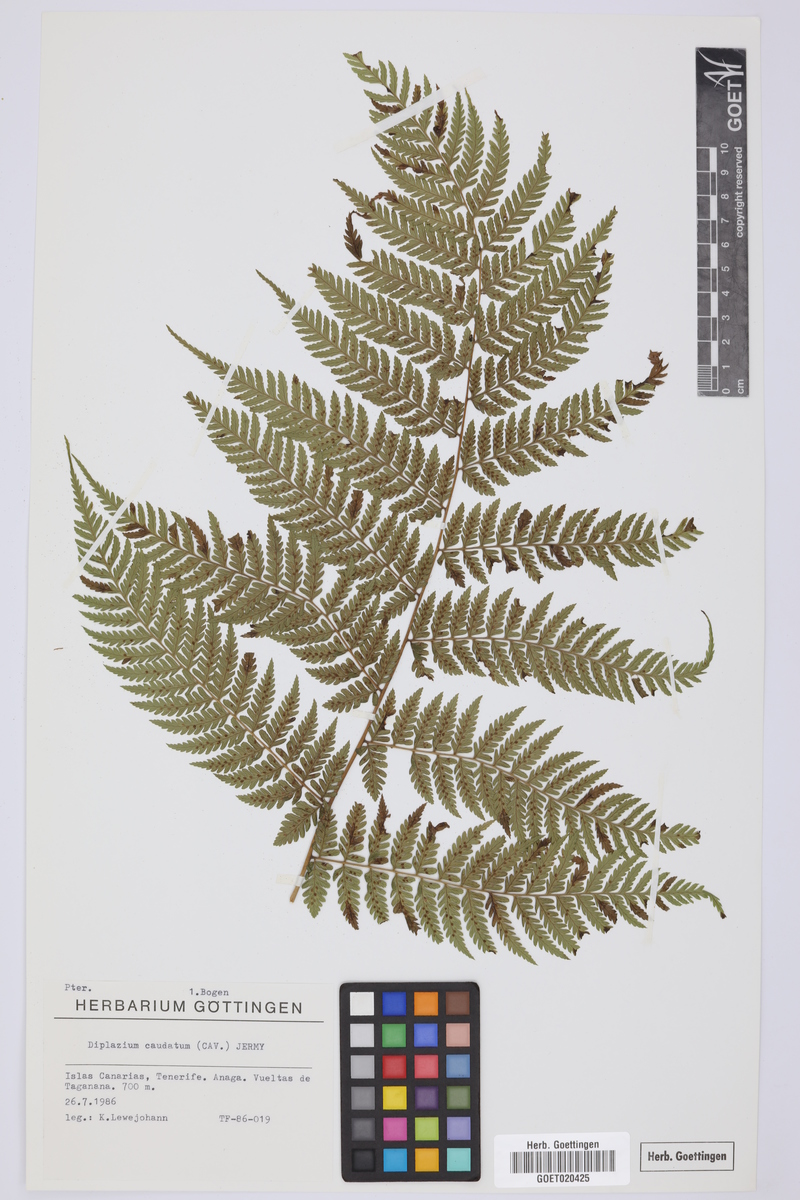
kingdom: Plantae
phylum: Tracheophyta
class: Polypodiopsida
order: Polypodiales
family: Athyriaceae
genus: Diplazium
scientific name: Diplazium caudatum
